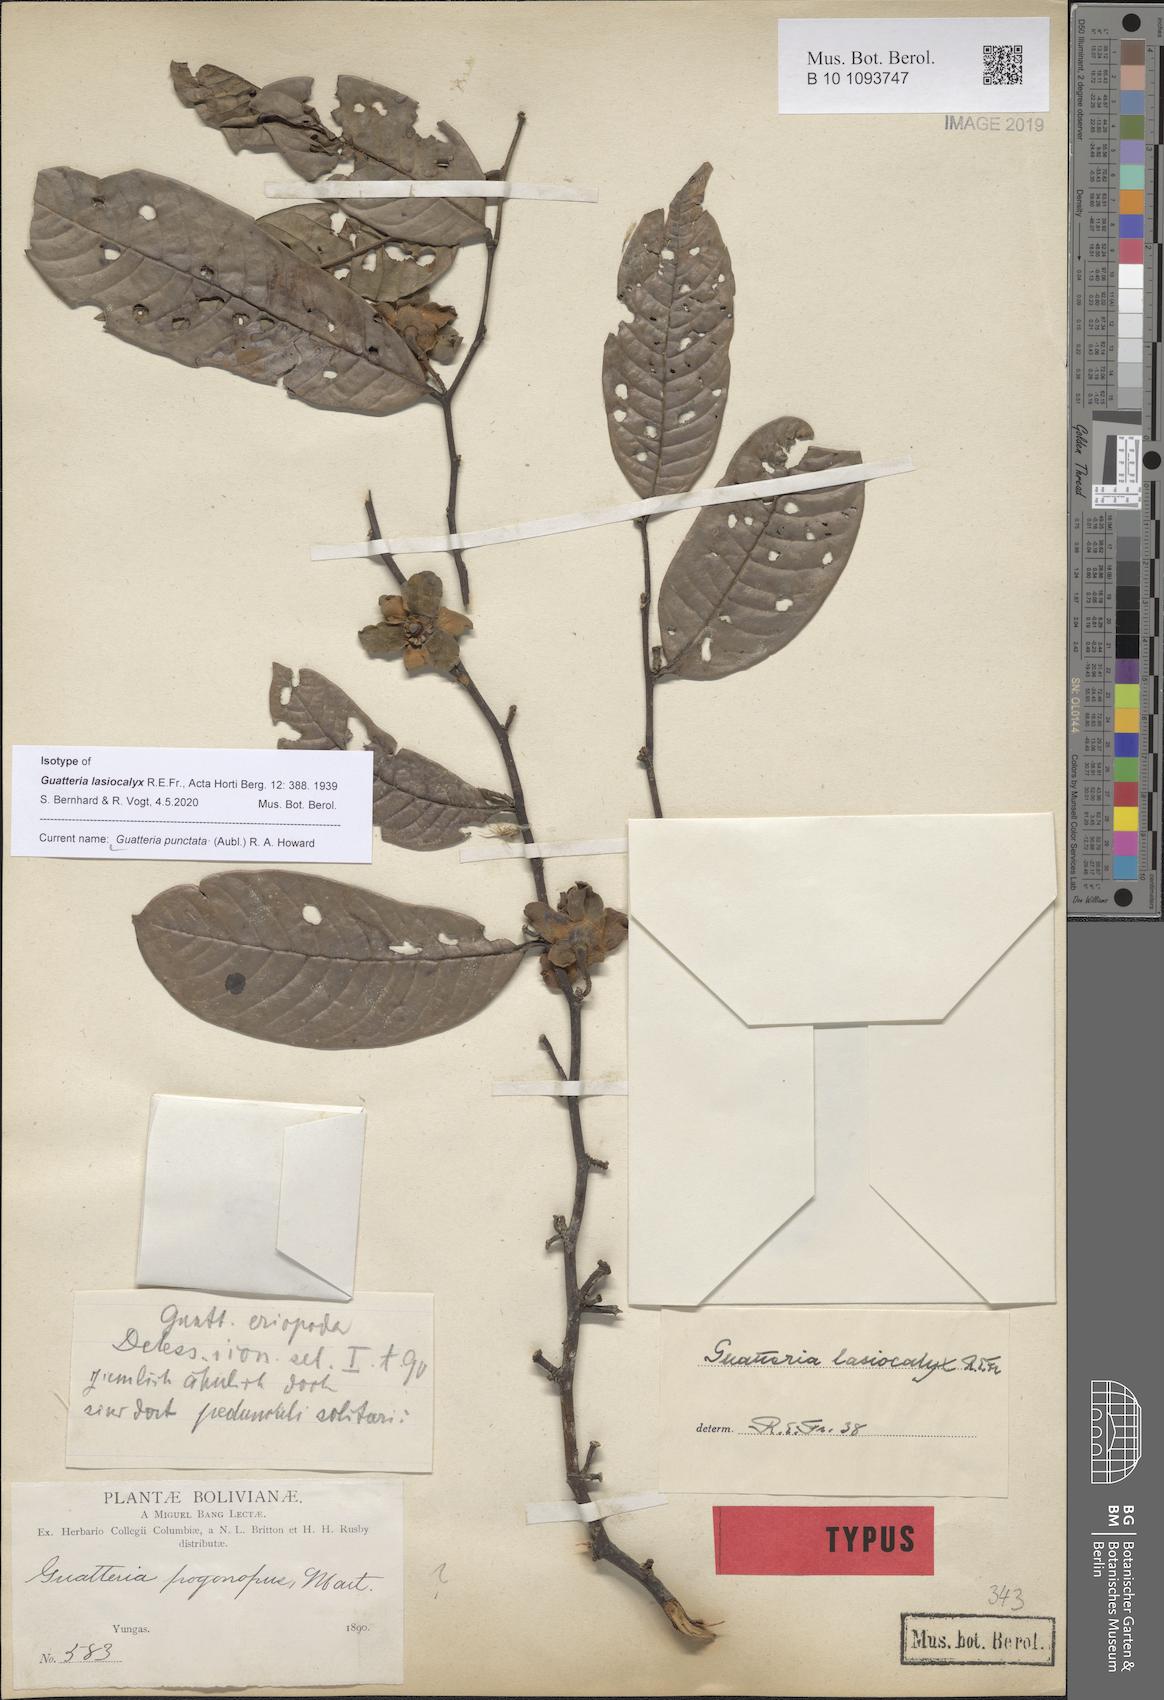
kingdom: Plantae
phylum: Tracheophyta
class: Magnoliopsida
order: Magnoliales
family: Annonaceae
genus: Guatteria
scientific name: Guatteria punctata
